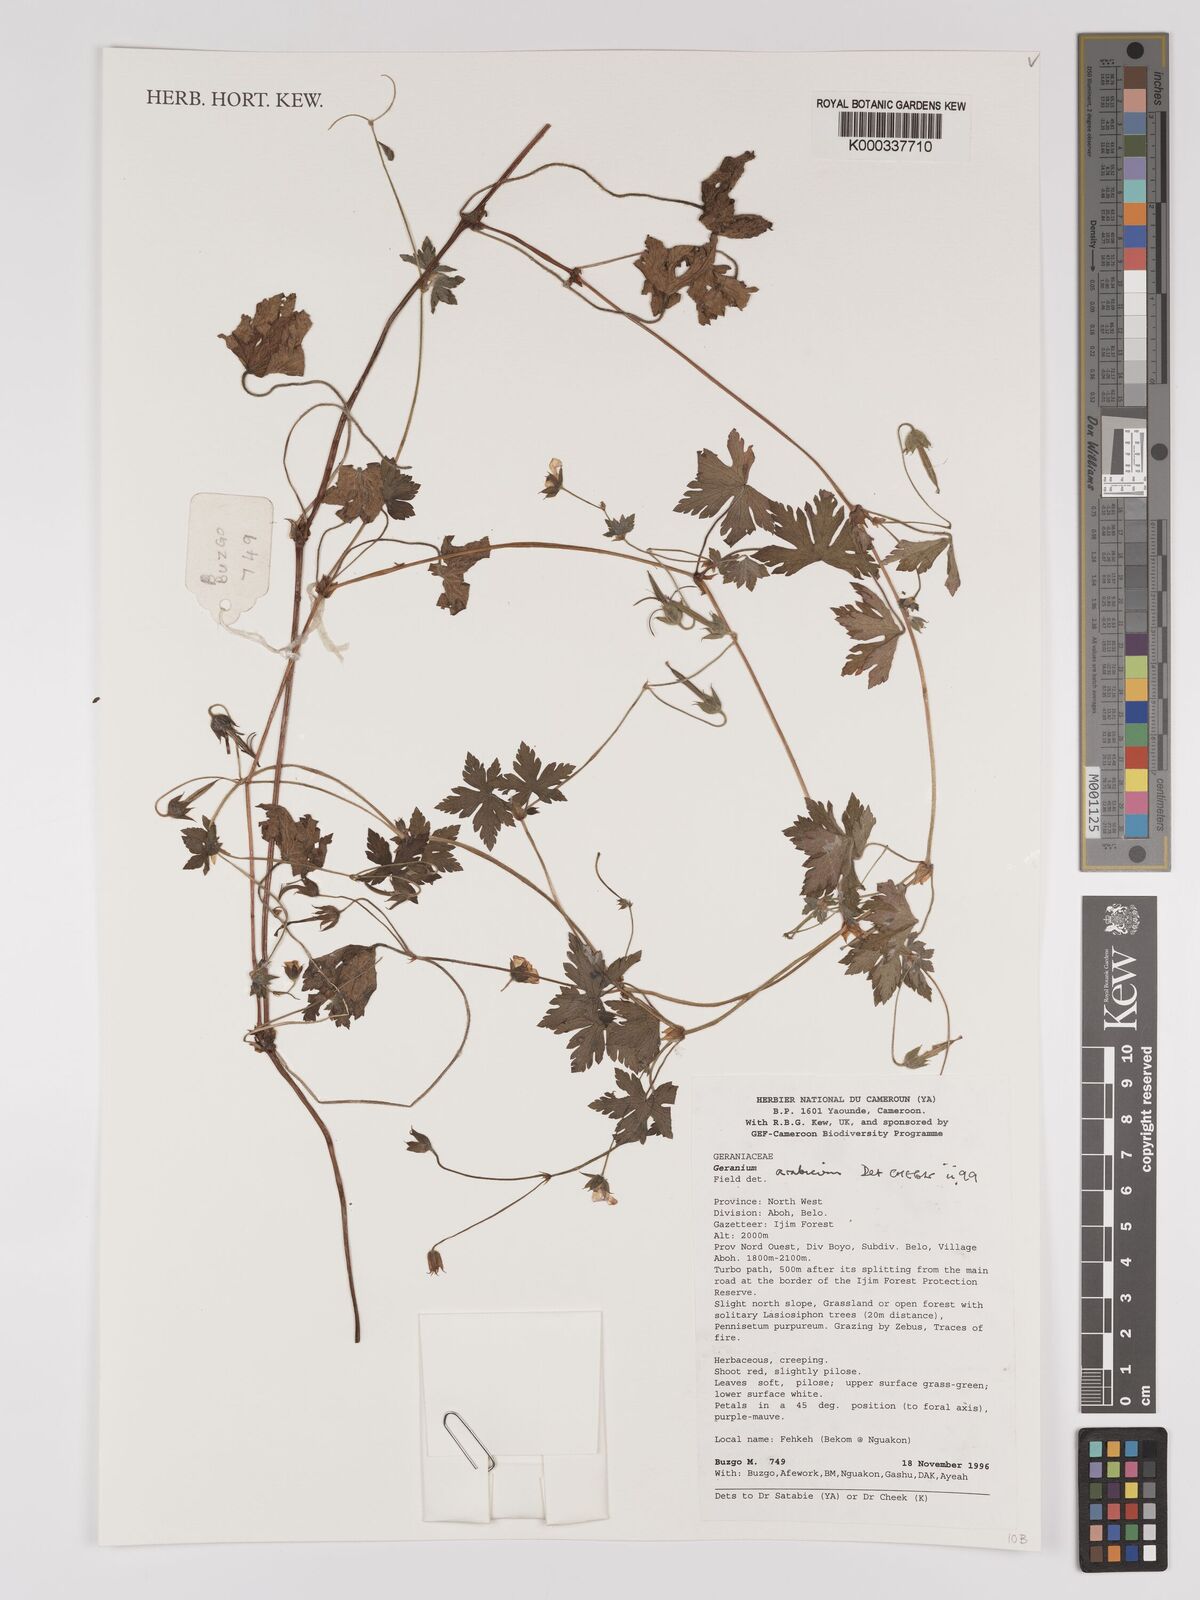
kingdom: Plantae
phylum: Tracheophyta
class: Magnoliopsida
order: Geraniales
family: Geraniaceae
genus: Geranium
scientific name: Geranium arabicum
